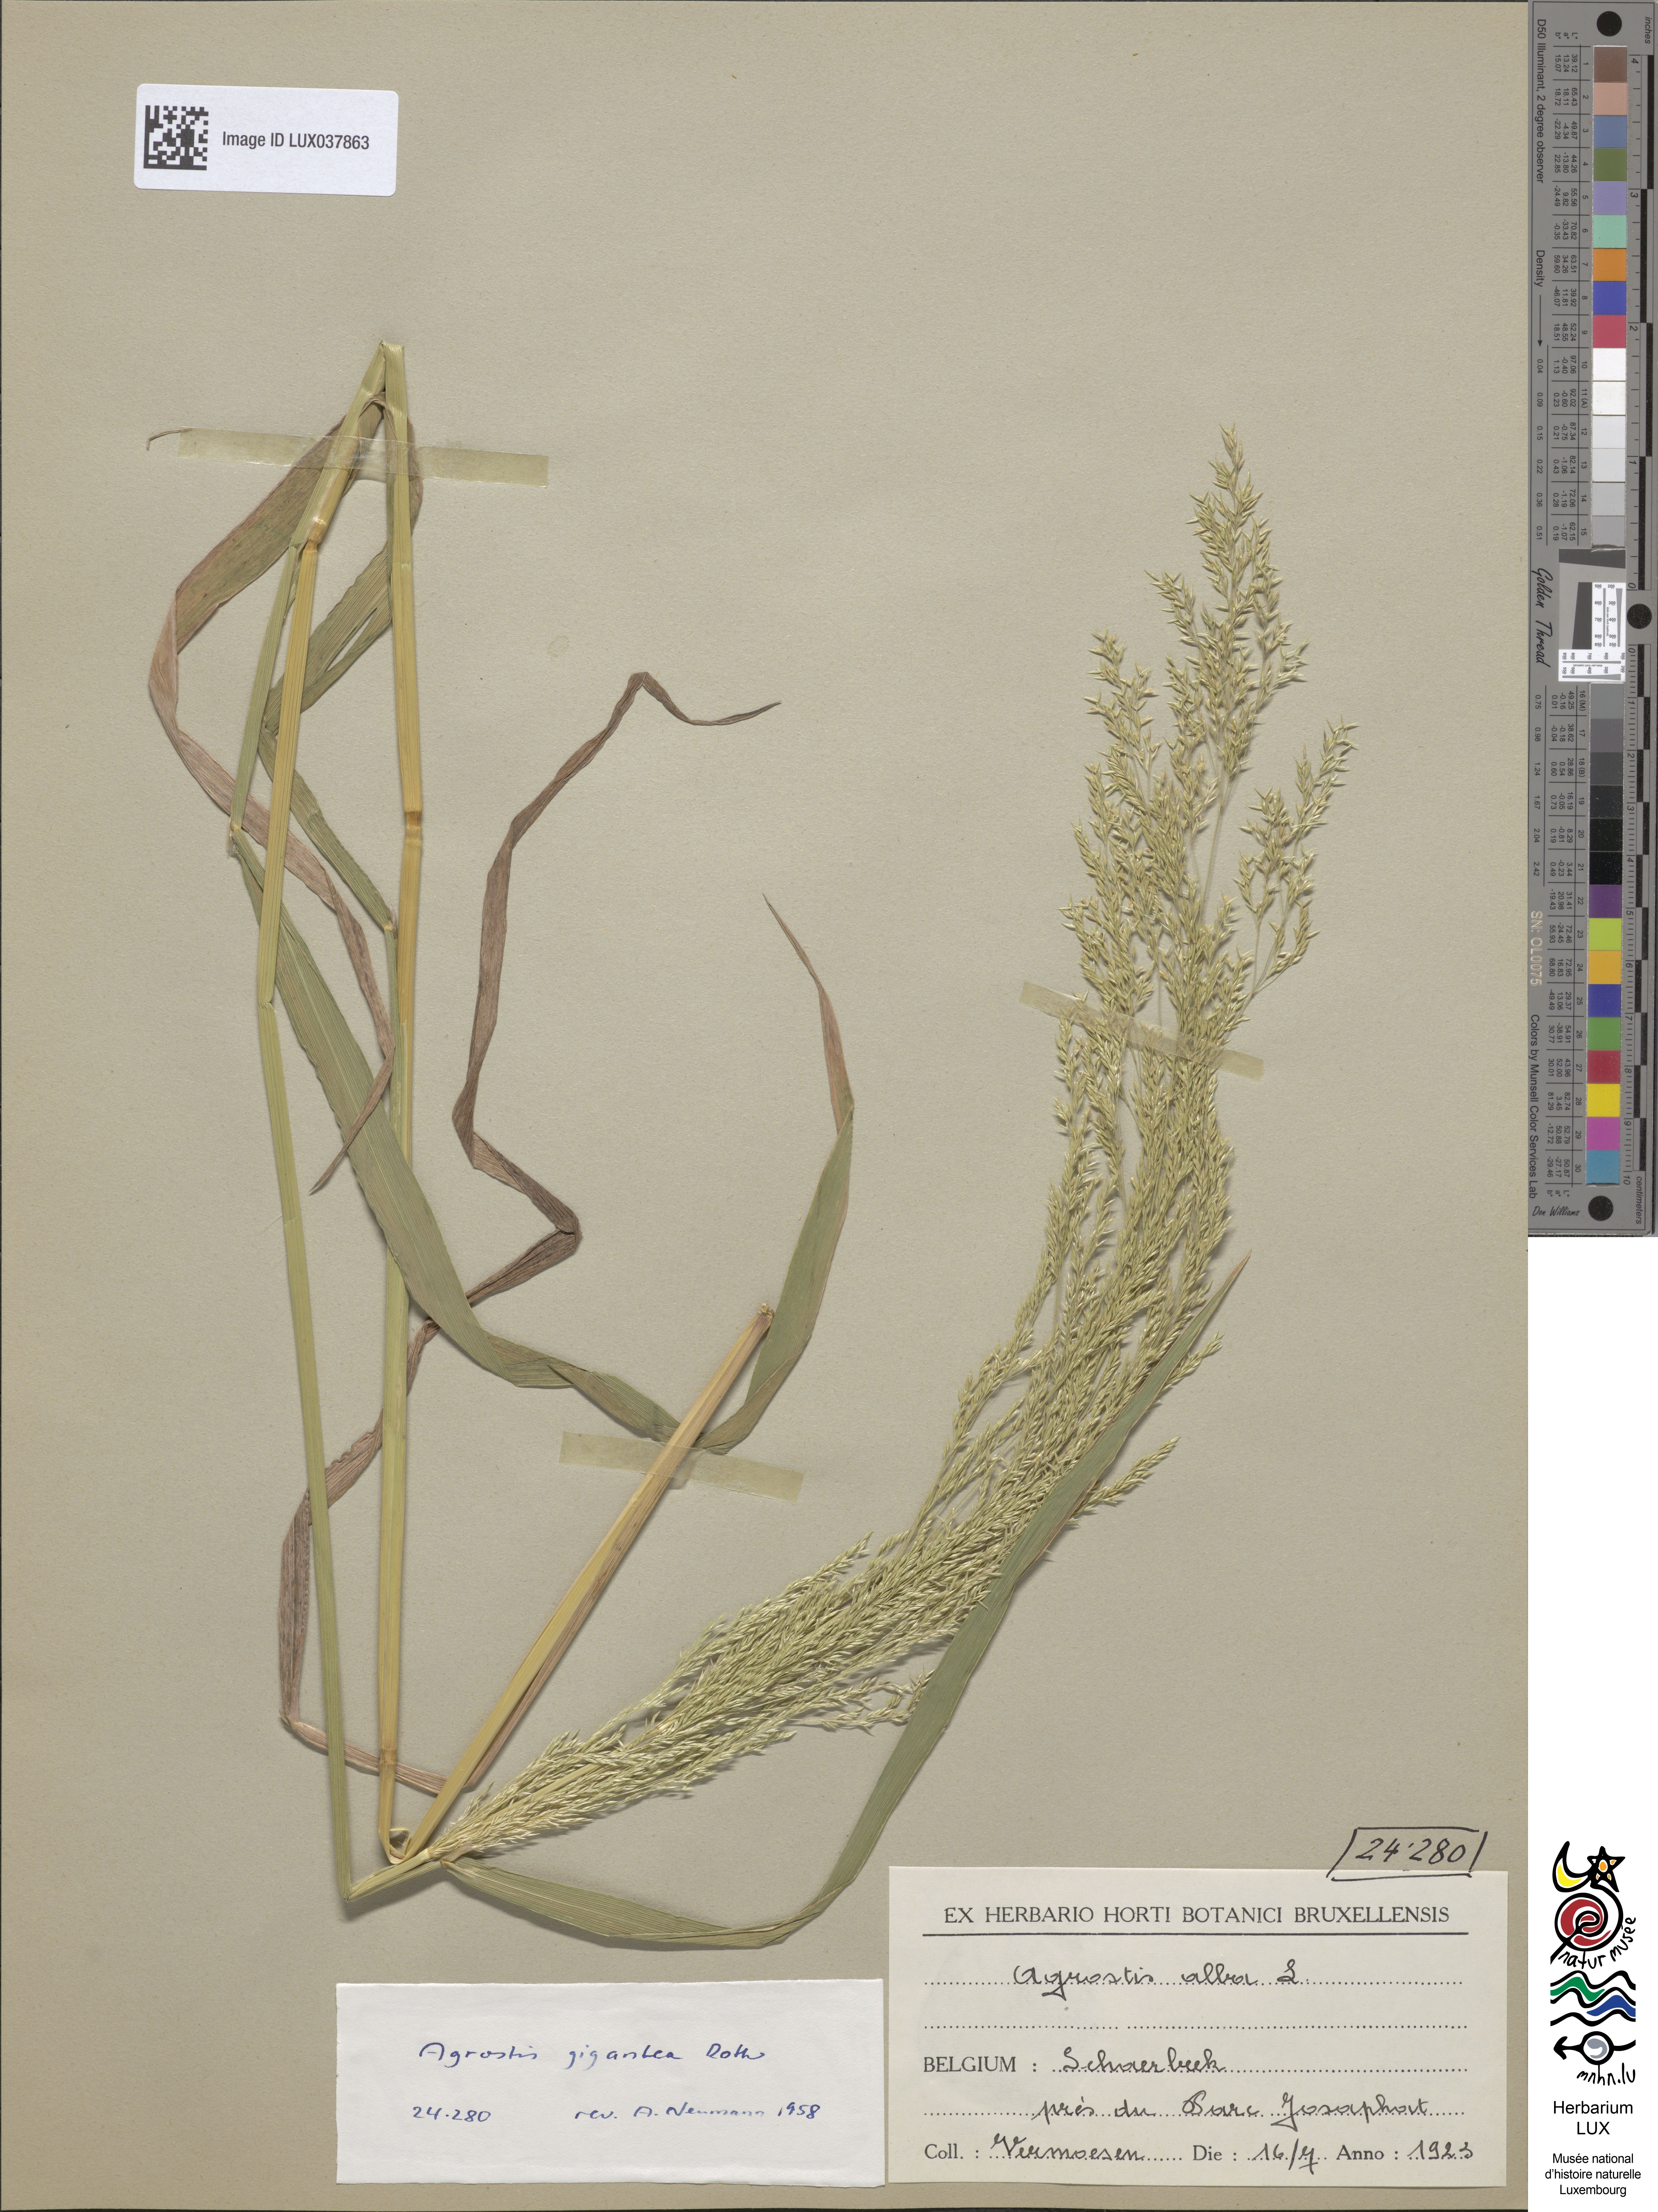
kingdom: Plantae
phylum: Tracheophyta
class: Liliopsida
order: Poales
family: Poaceae
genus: Agrostis
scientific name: Agrostis gigantea
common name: Black bent
